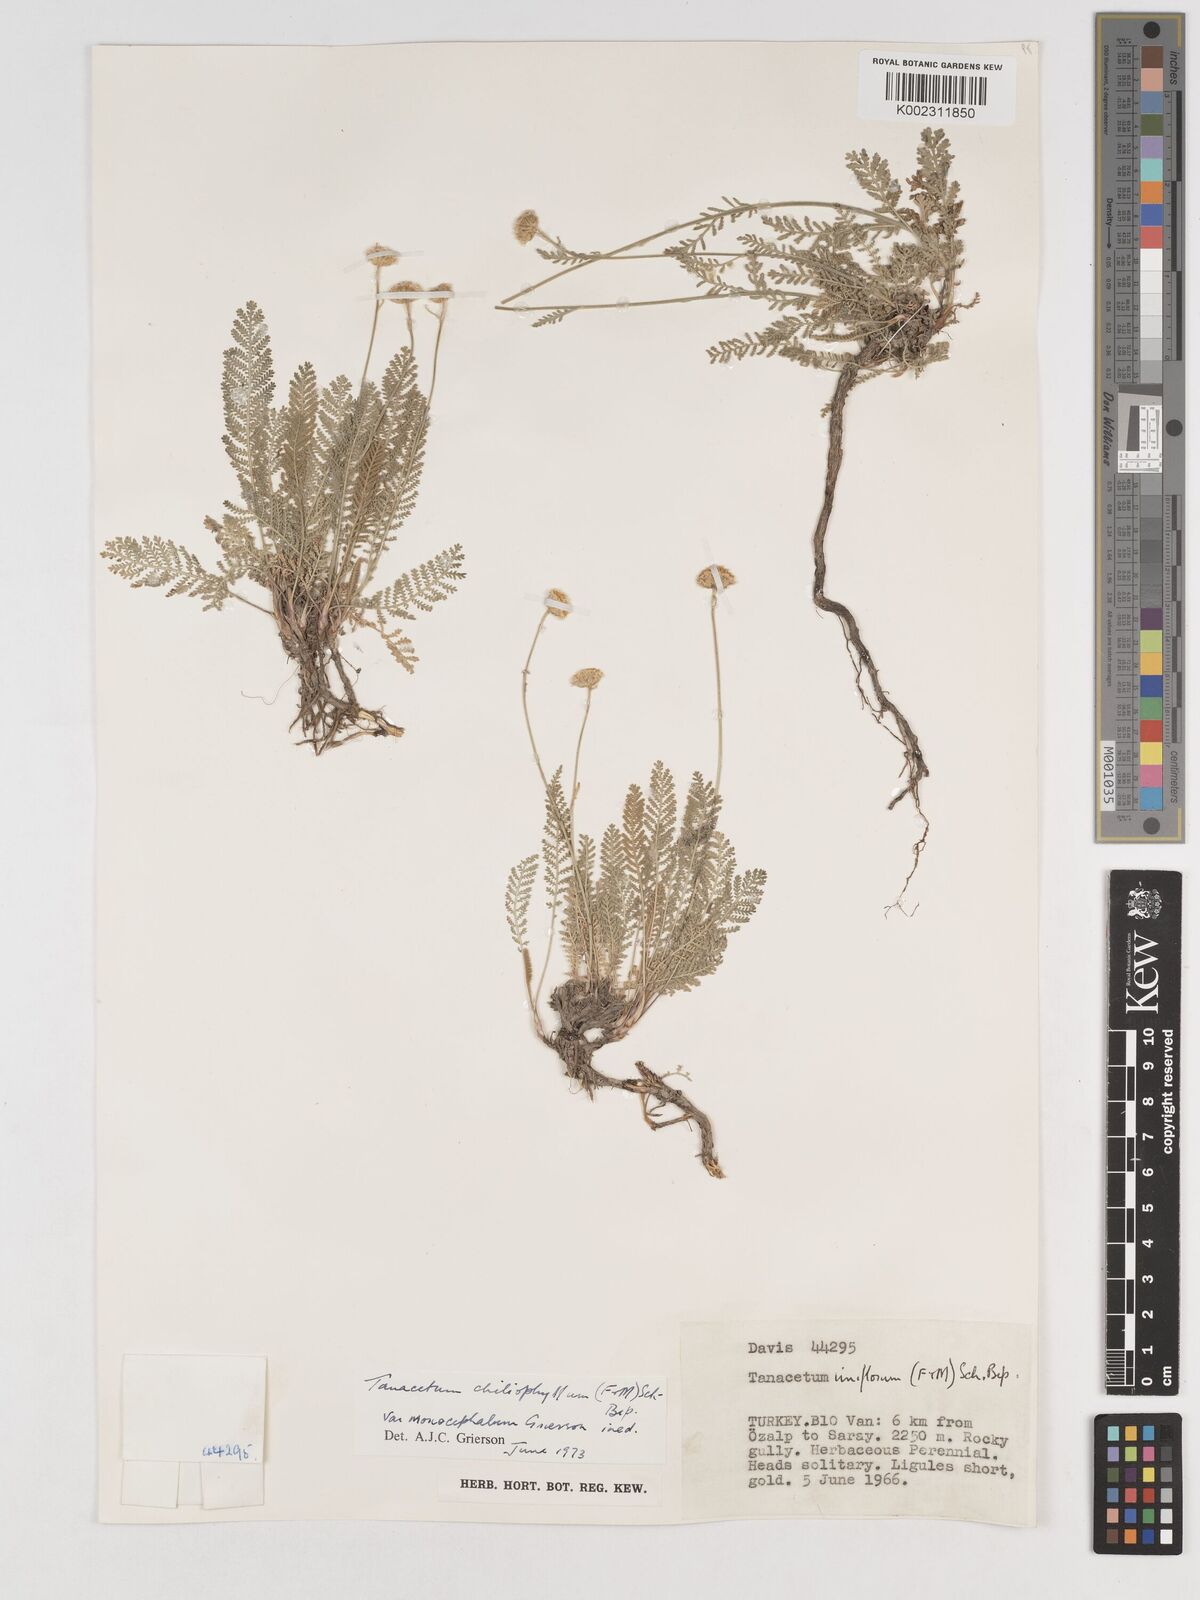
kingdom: Plantae
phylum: Tracheophyta
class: Magnoliopsida
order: Asterales
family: Asteraceae
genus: Tanacetum
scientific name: Tanacetum aureum
